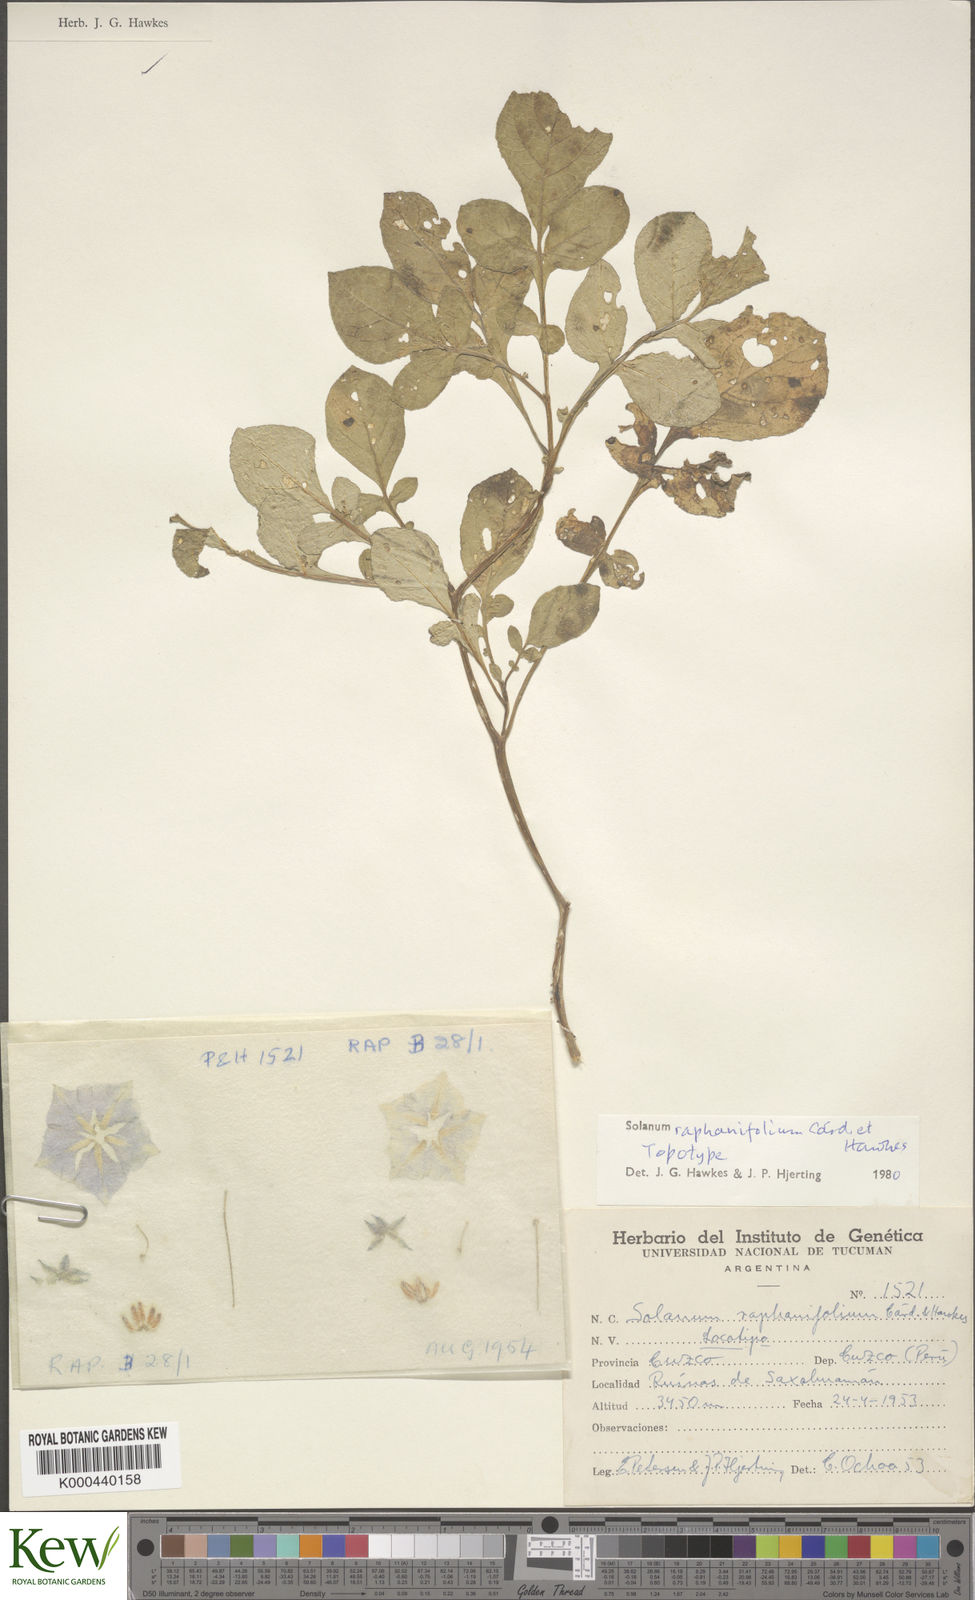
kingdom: Plantae
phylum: Tracheophyta
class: Magnoliopsida
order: Solanales
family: Solanaceae
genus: Solanum
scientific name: Solanum raphanifolium
